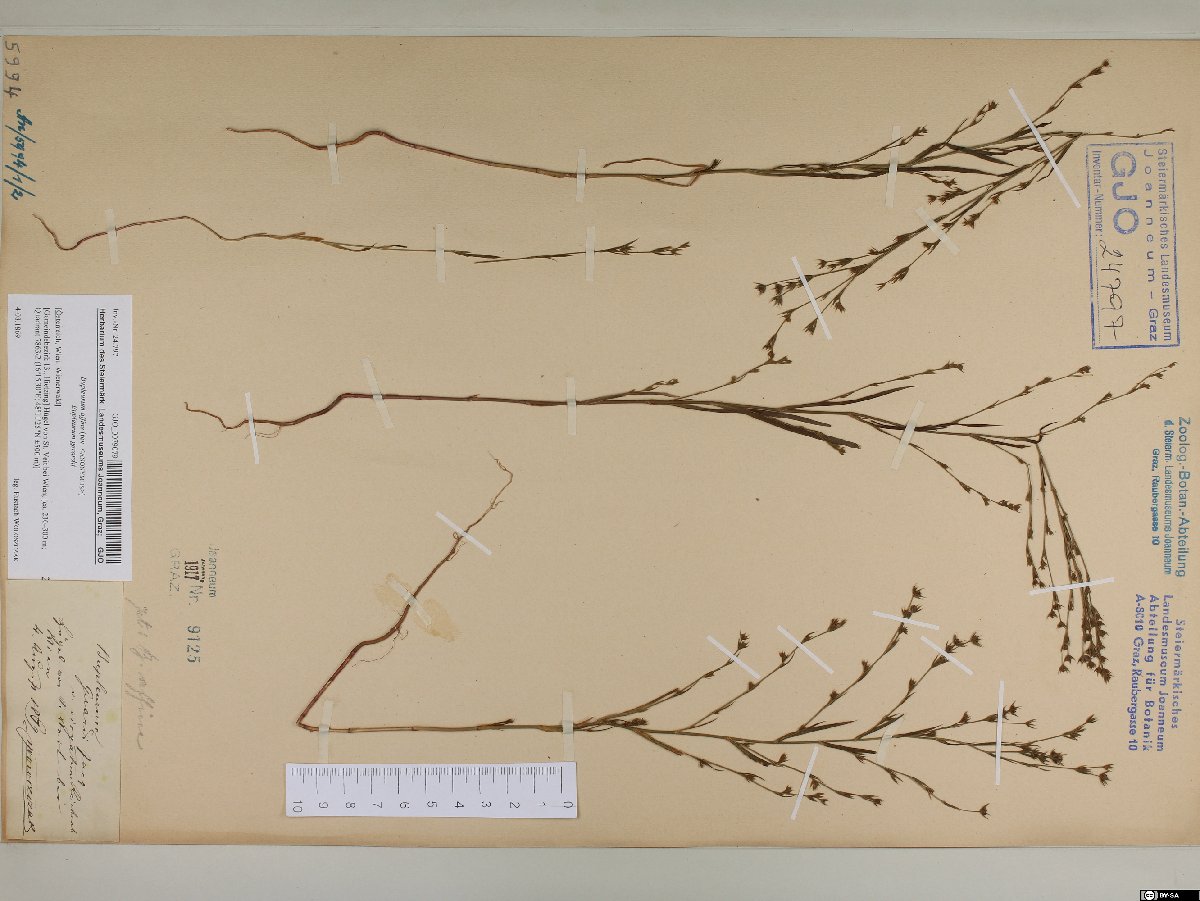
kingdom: Plantae
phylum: Tracheophyta
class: Magnoliopsida
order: Apiales
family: Apiaceae
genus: Bupleurum
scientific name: Bupleurum affine
